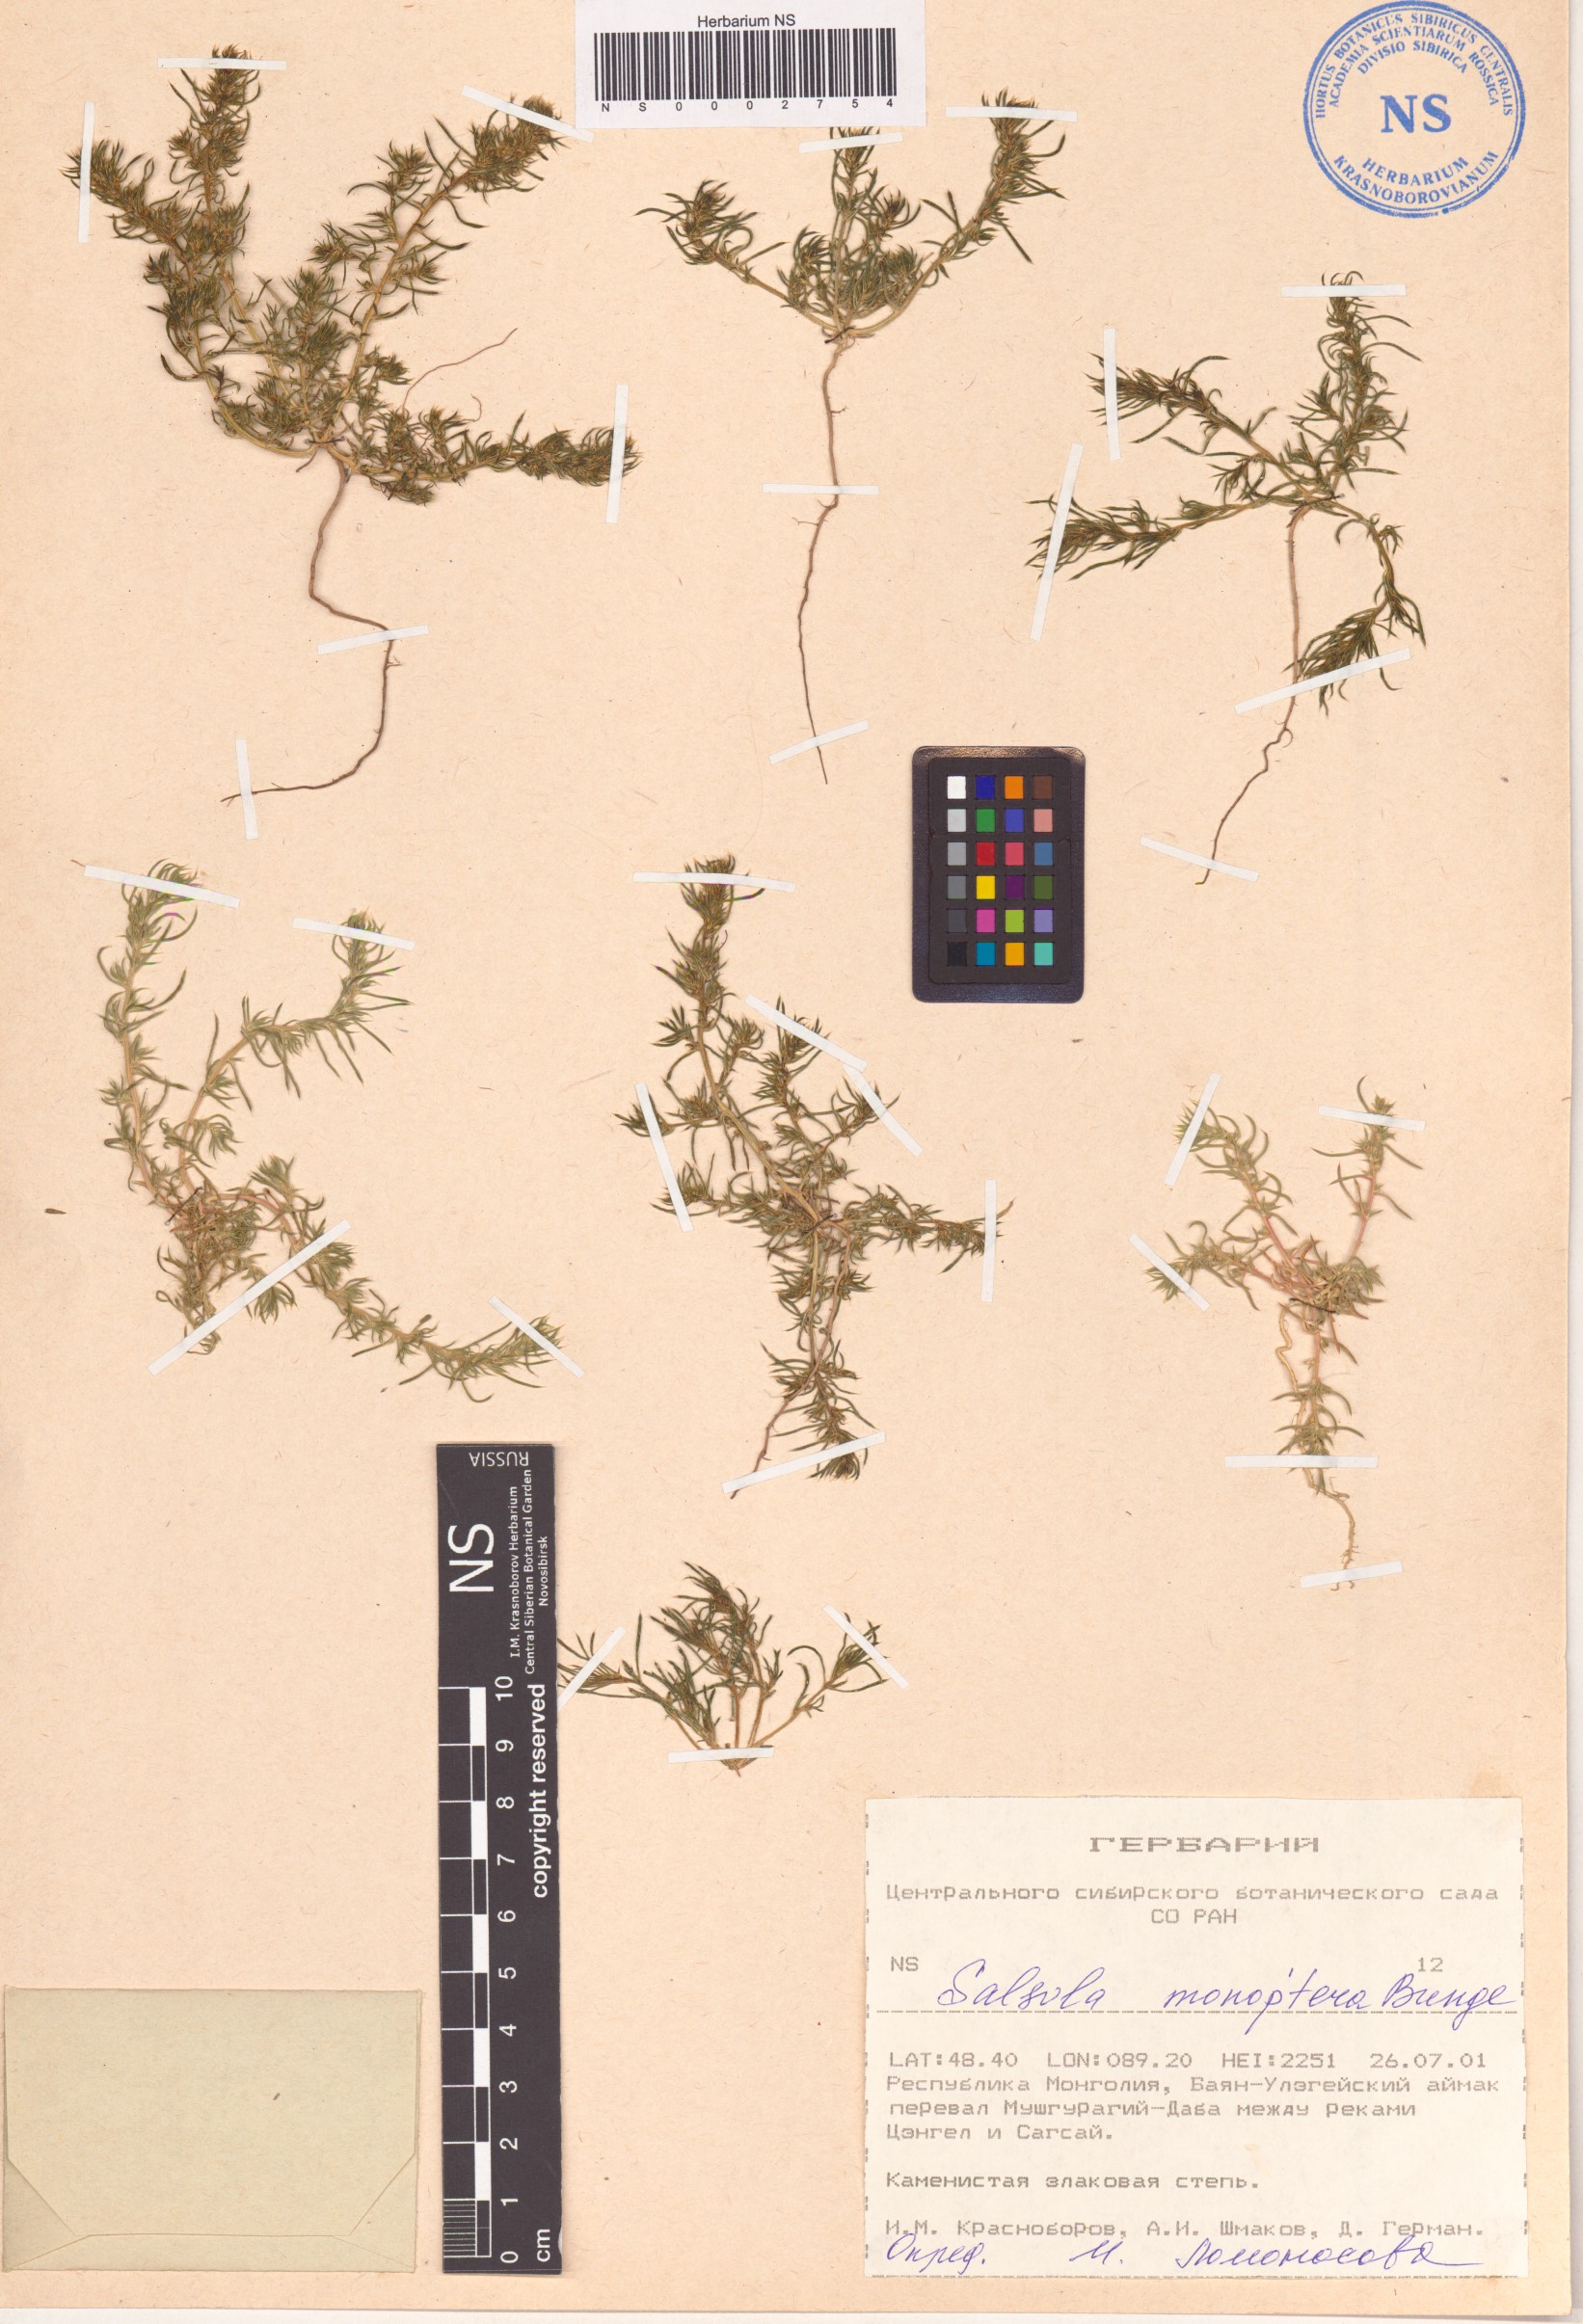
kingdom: Plantae
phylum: Tracheophyta
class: Magnoliopsida
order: Caryophyllales
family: Amaranthaceae
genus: Salsola
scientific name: Salsola monoptera
